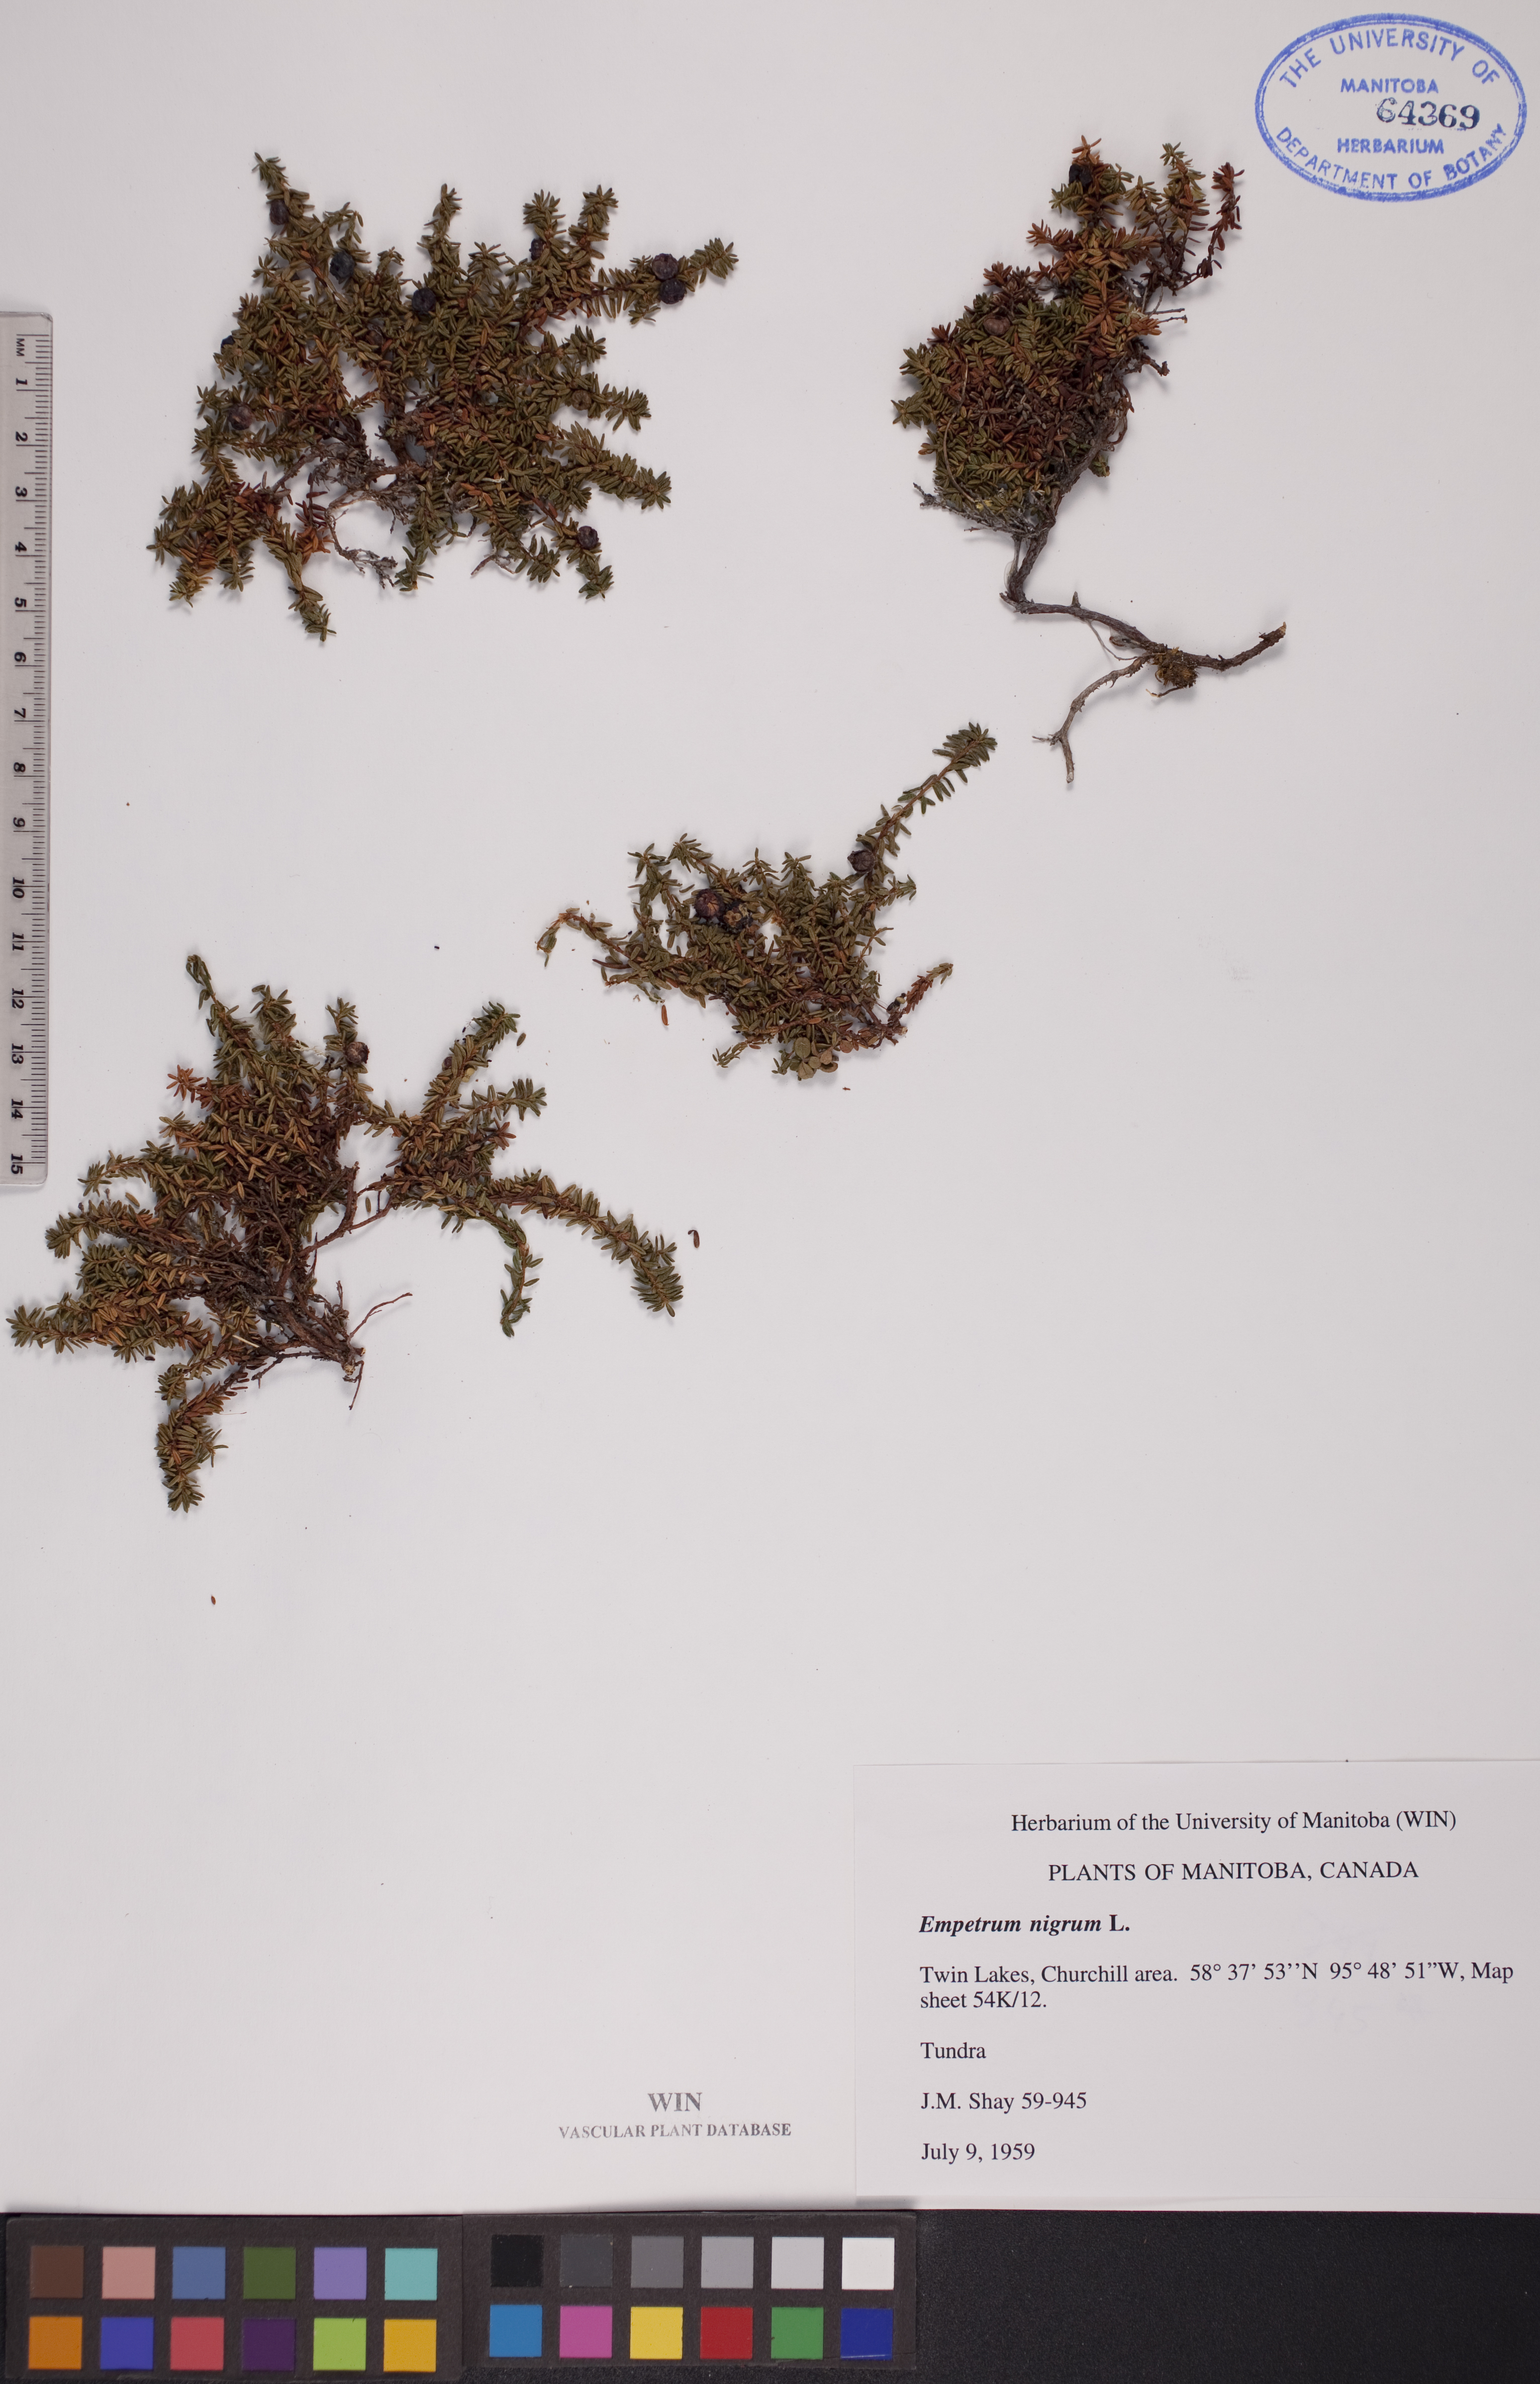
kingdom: Plantae
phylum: Tracheophyta
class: Magnoliopsida
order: Ericales
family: Ericaceae
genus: Empetrum
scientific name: Empetrum nigrum
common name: Black crowberry
